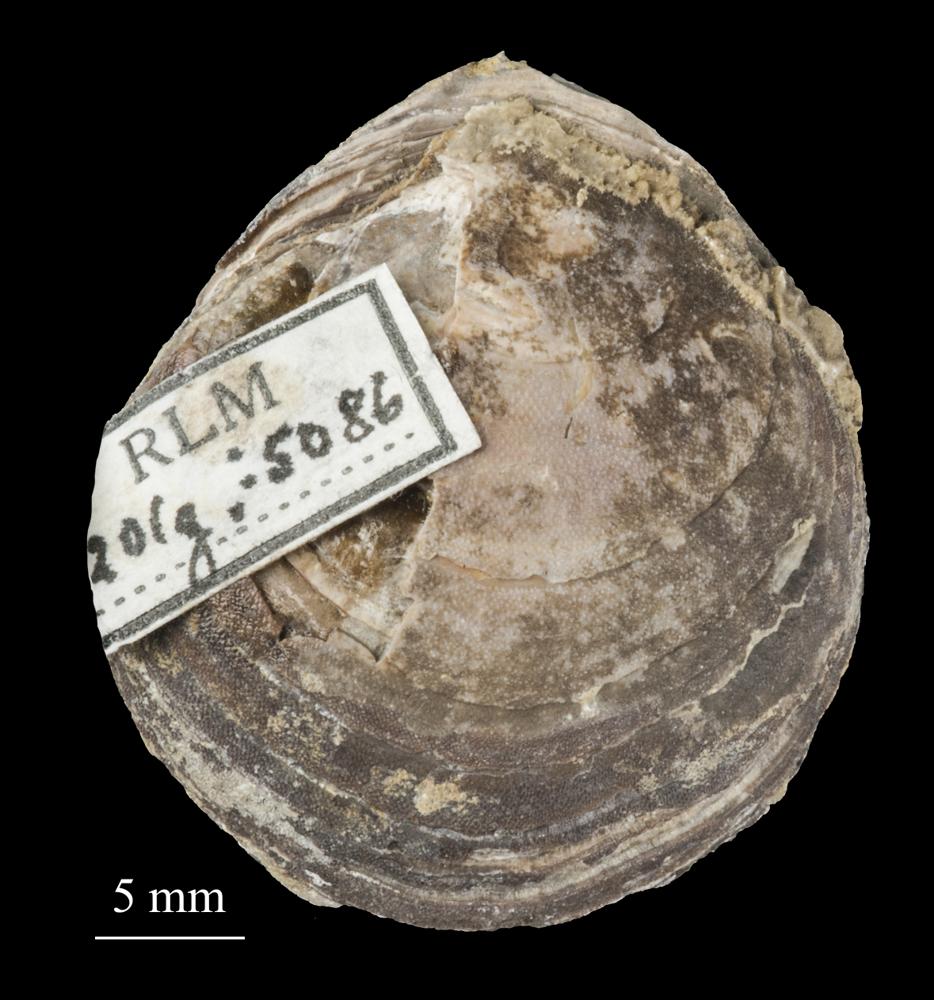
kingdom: Animalia
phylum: Brachiopoda
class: Lingulata
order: Siphonotretida
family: Siphonotretidae
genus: Siphonotreta
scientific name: Siphonotreta
